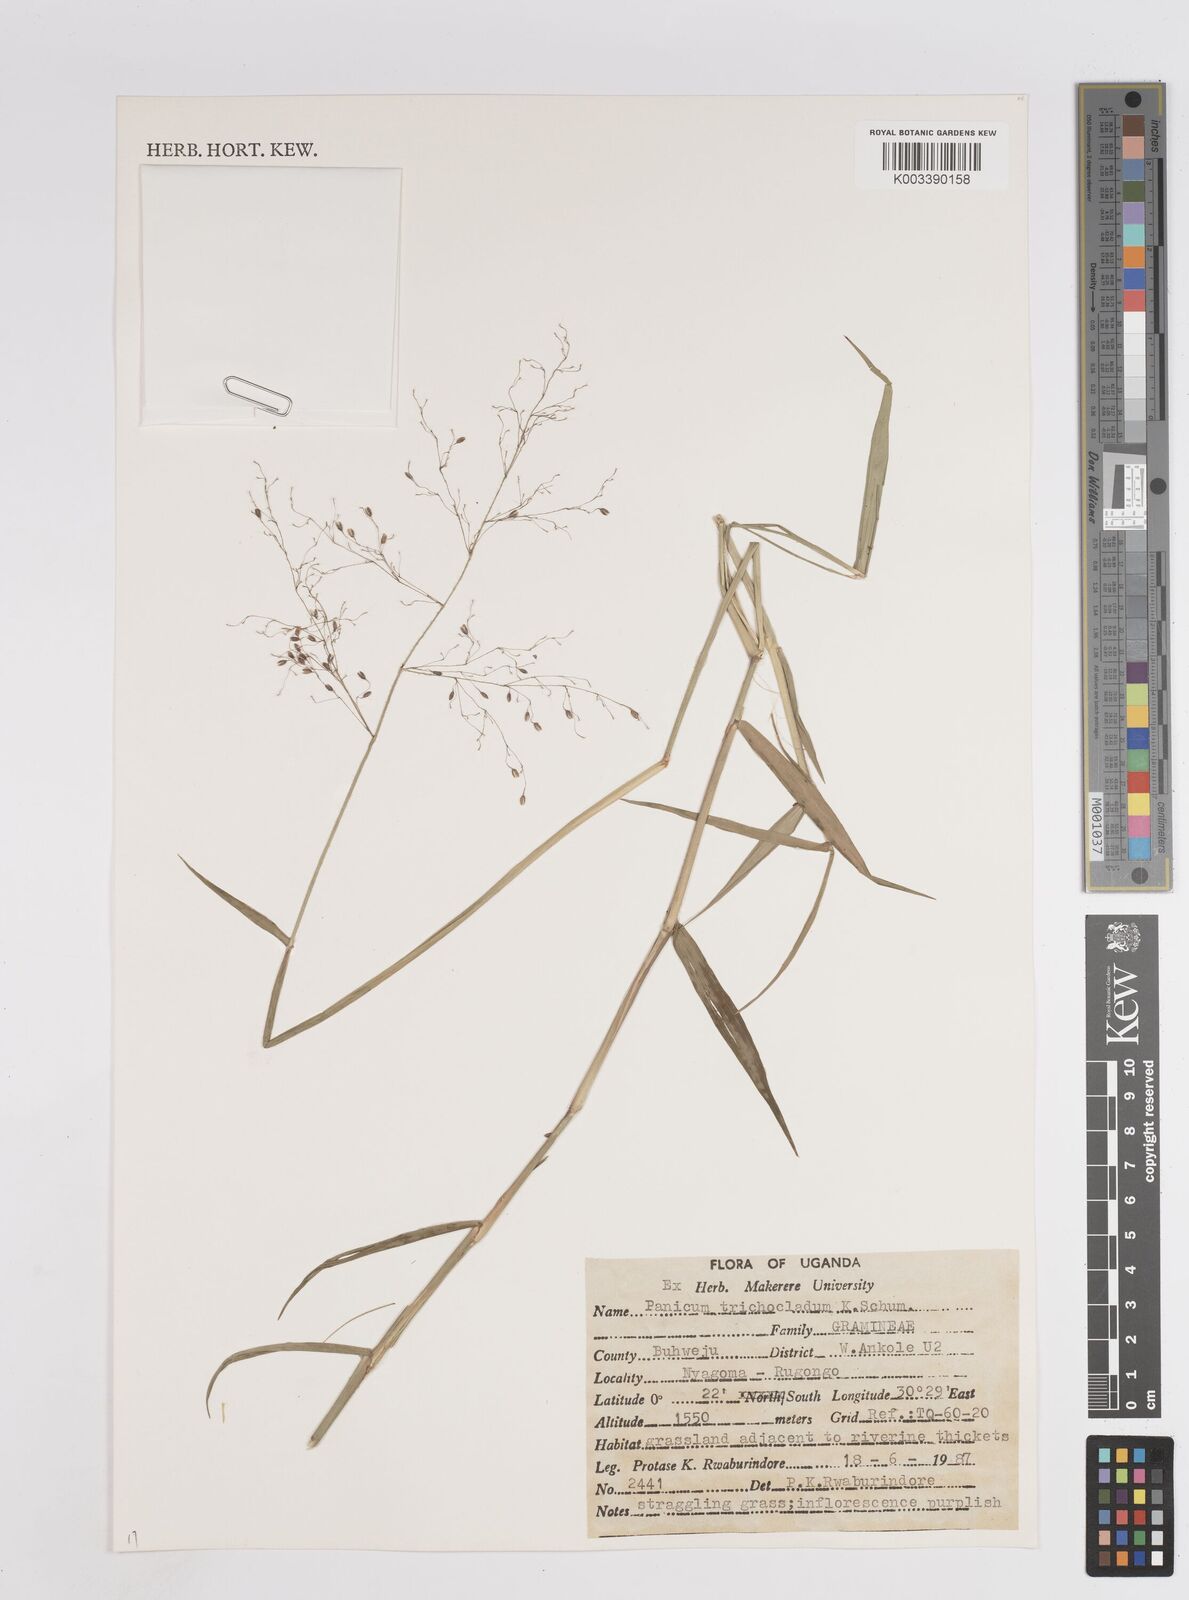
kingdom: Plantae
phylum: Tracheophyta
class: Liliopsida
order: Poales
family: Poaceae
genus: Megathyrsus
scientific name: Megathyrsus maximus
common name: Guineagrass
